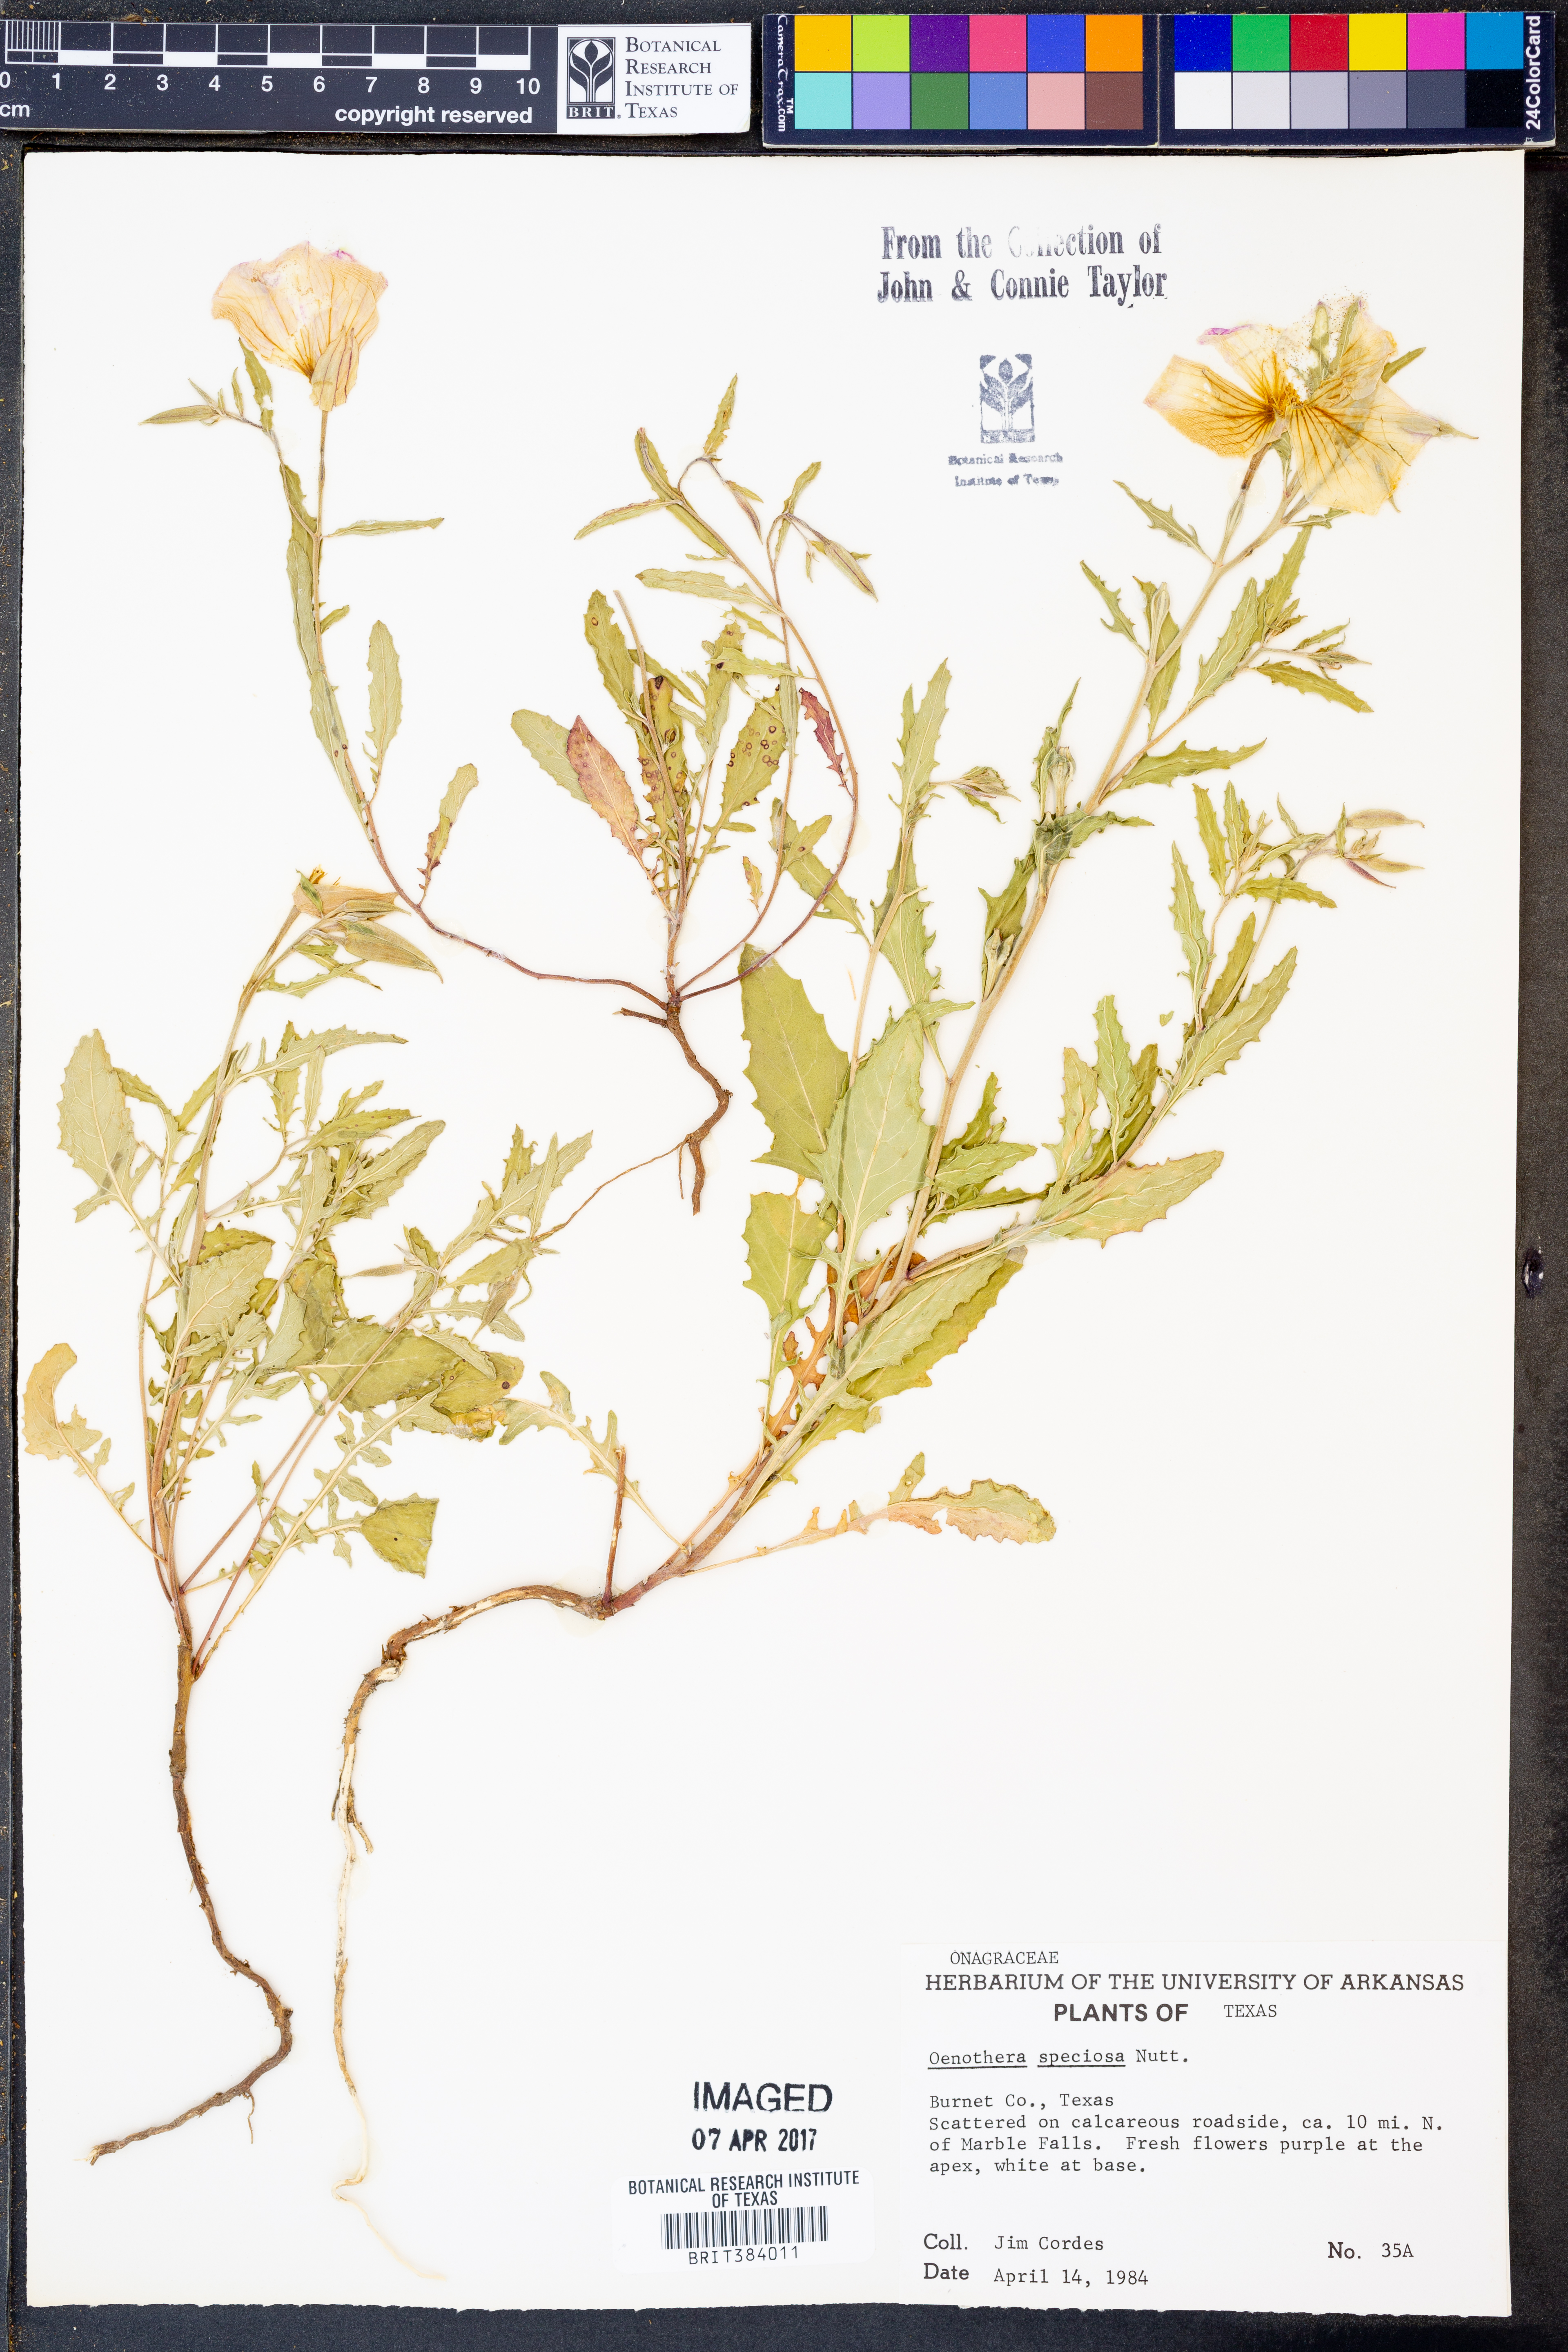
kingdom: Plantae
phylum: Tracheophyta
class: Magnoliopsida
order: Myrtales
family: Onagraceae
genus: Oenothera
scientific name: Oenothera speciosa
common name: White evening-primrose
